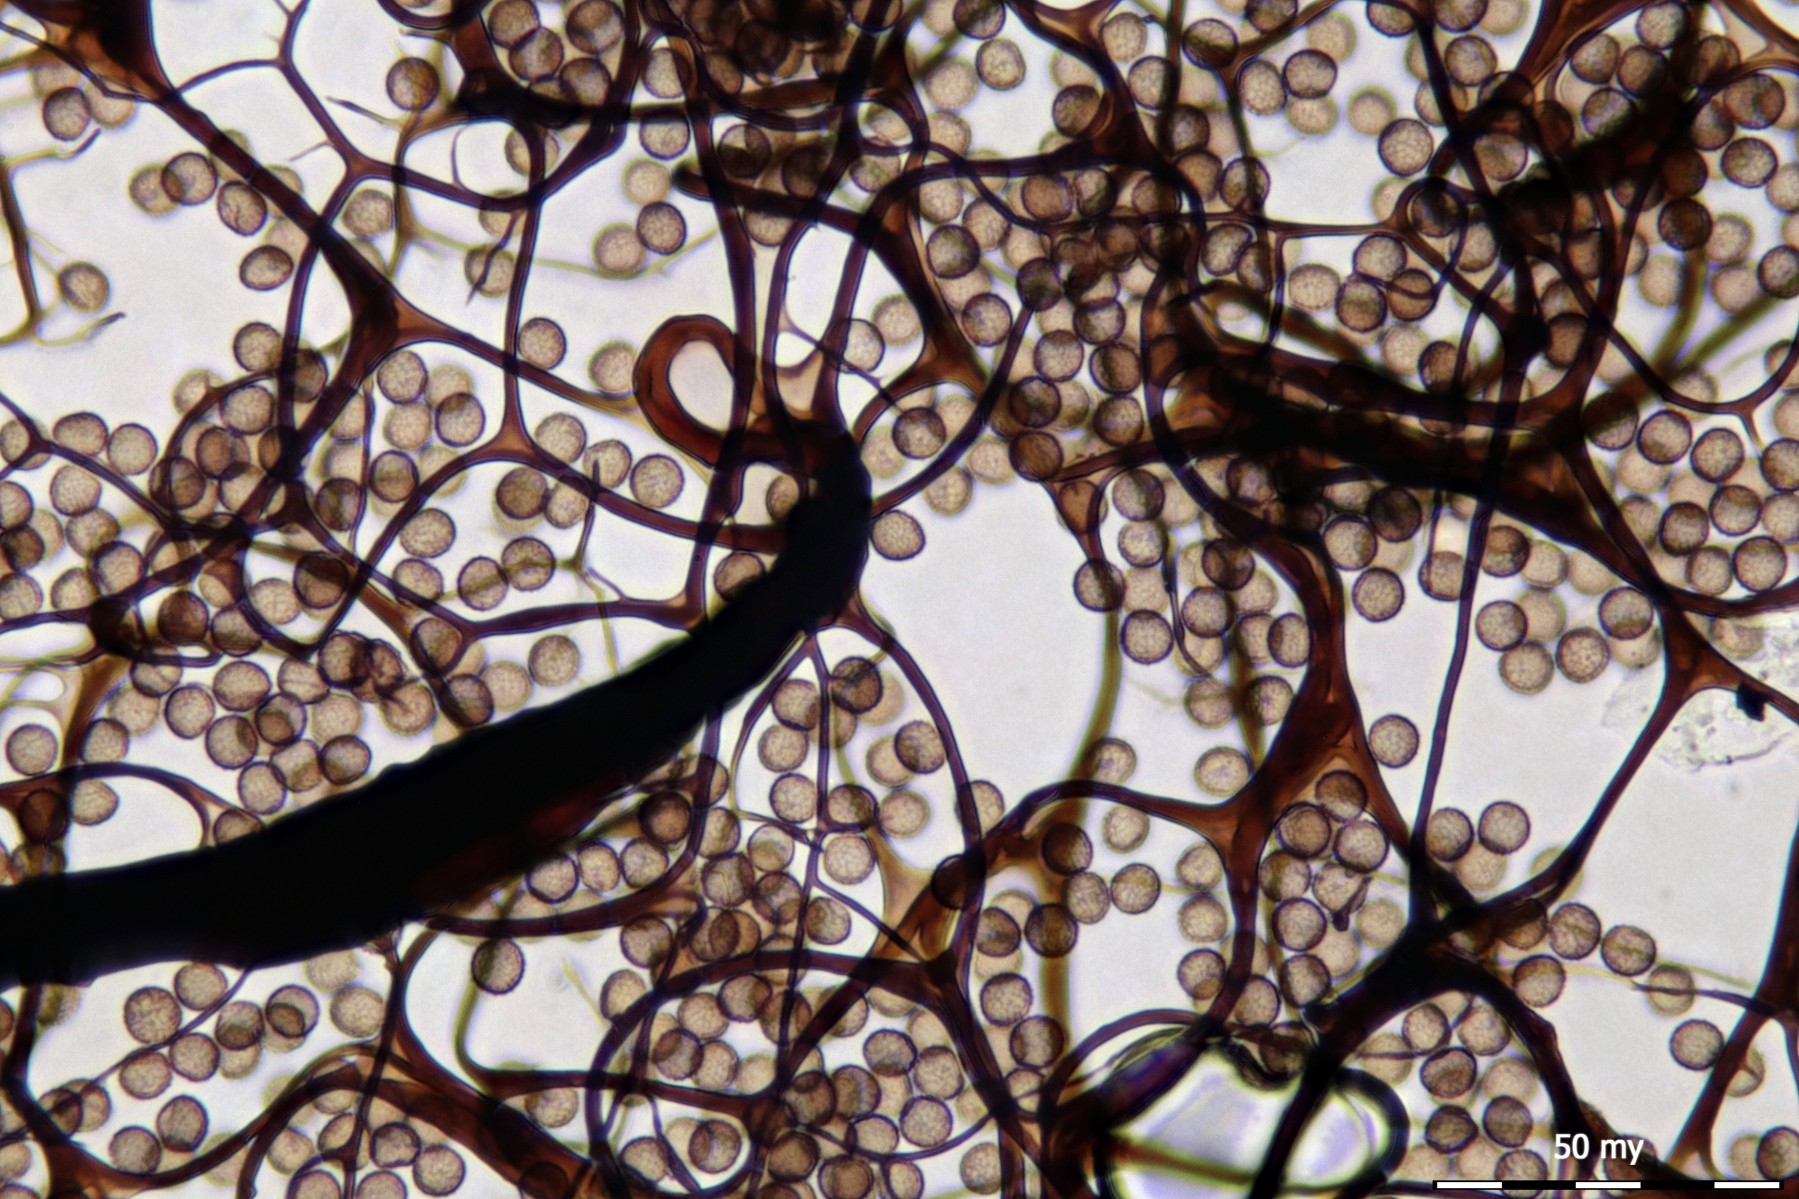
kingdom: Protozoa
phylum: Mycetozoa
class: Myxomycetes
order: Stemonitidales
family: Stemonitidaceae
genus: Symphytocarpus
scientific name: Symphytocarpus amaurochaetoides
